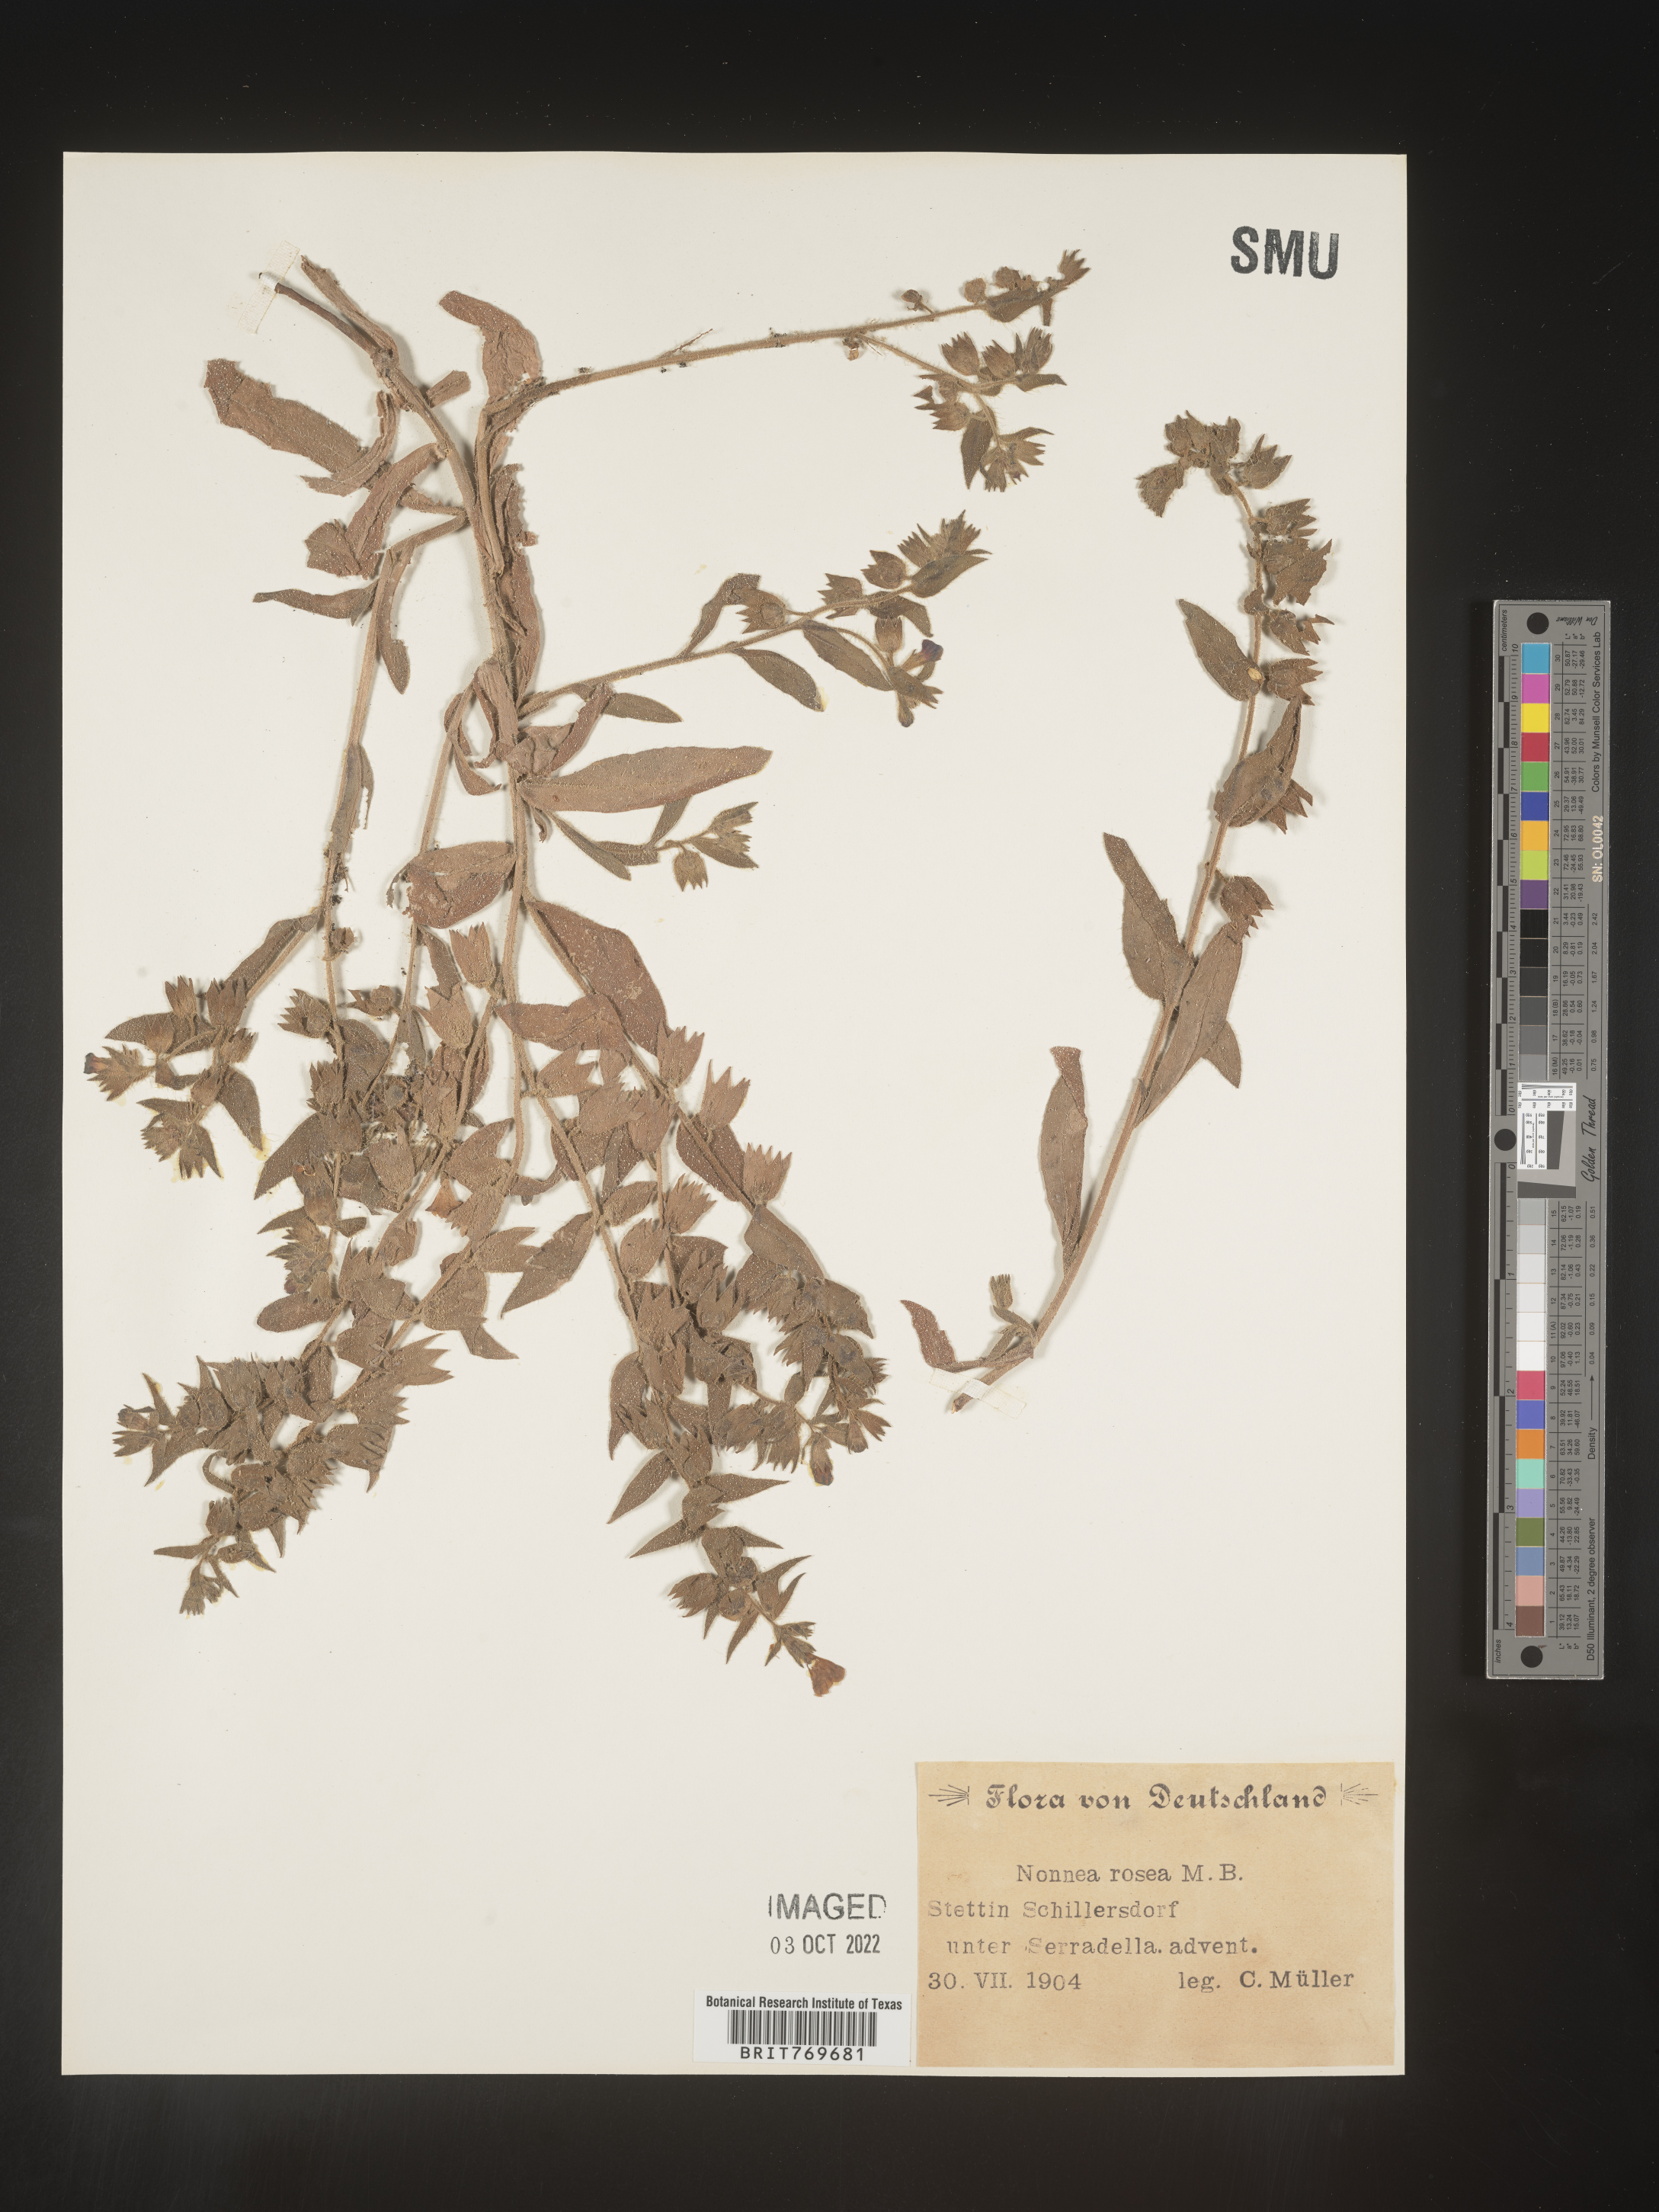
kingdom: Plantae
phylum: Tracheophyta
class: Magnoliopsida
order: Boraginales
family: Boraginaceae
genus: Nonea
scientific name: Nonea lutea
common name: Yellow nonea
